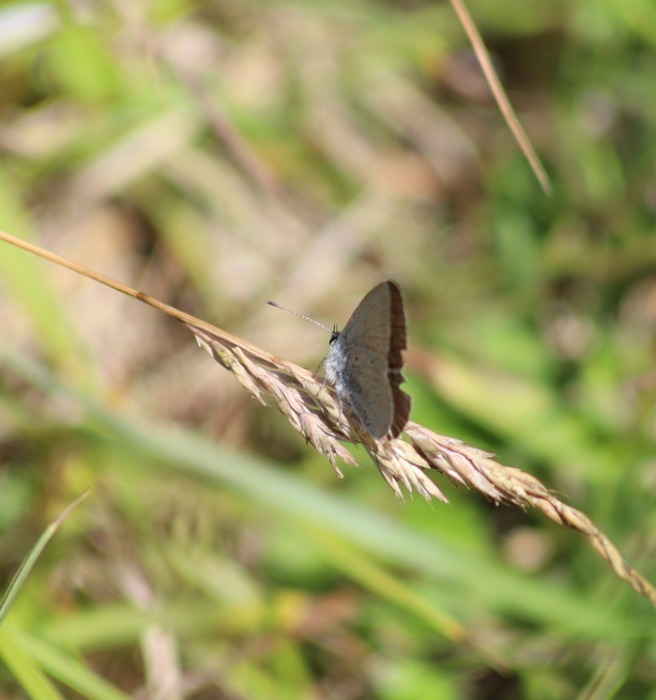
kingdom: Animalia
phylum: Arthropoda
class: Insecta
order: Lepidoptera
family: Lycaenidae
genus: Cupido
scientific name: Cupido minimus
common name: Dværgblåfugl
